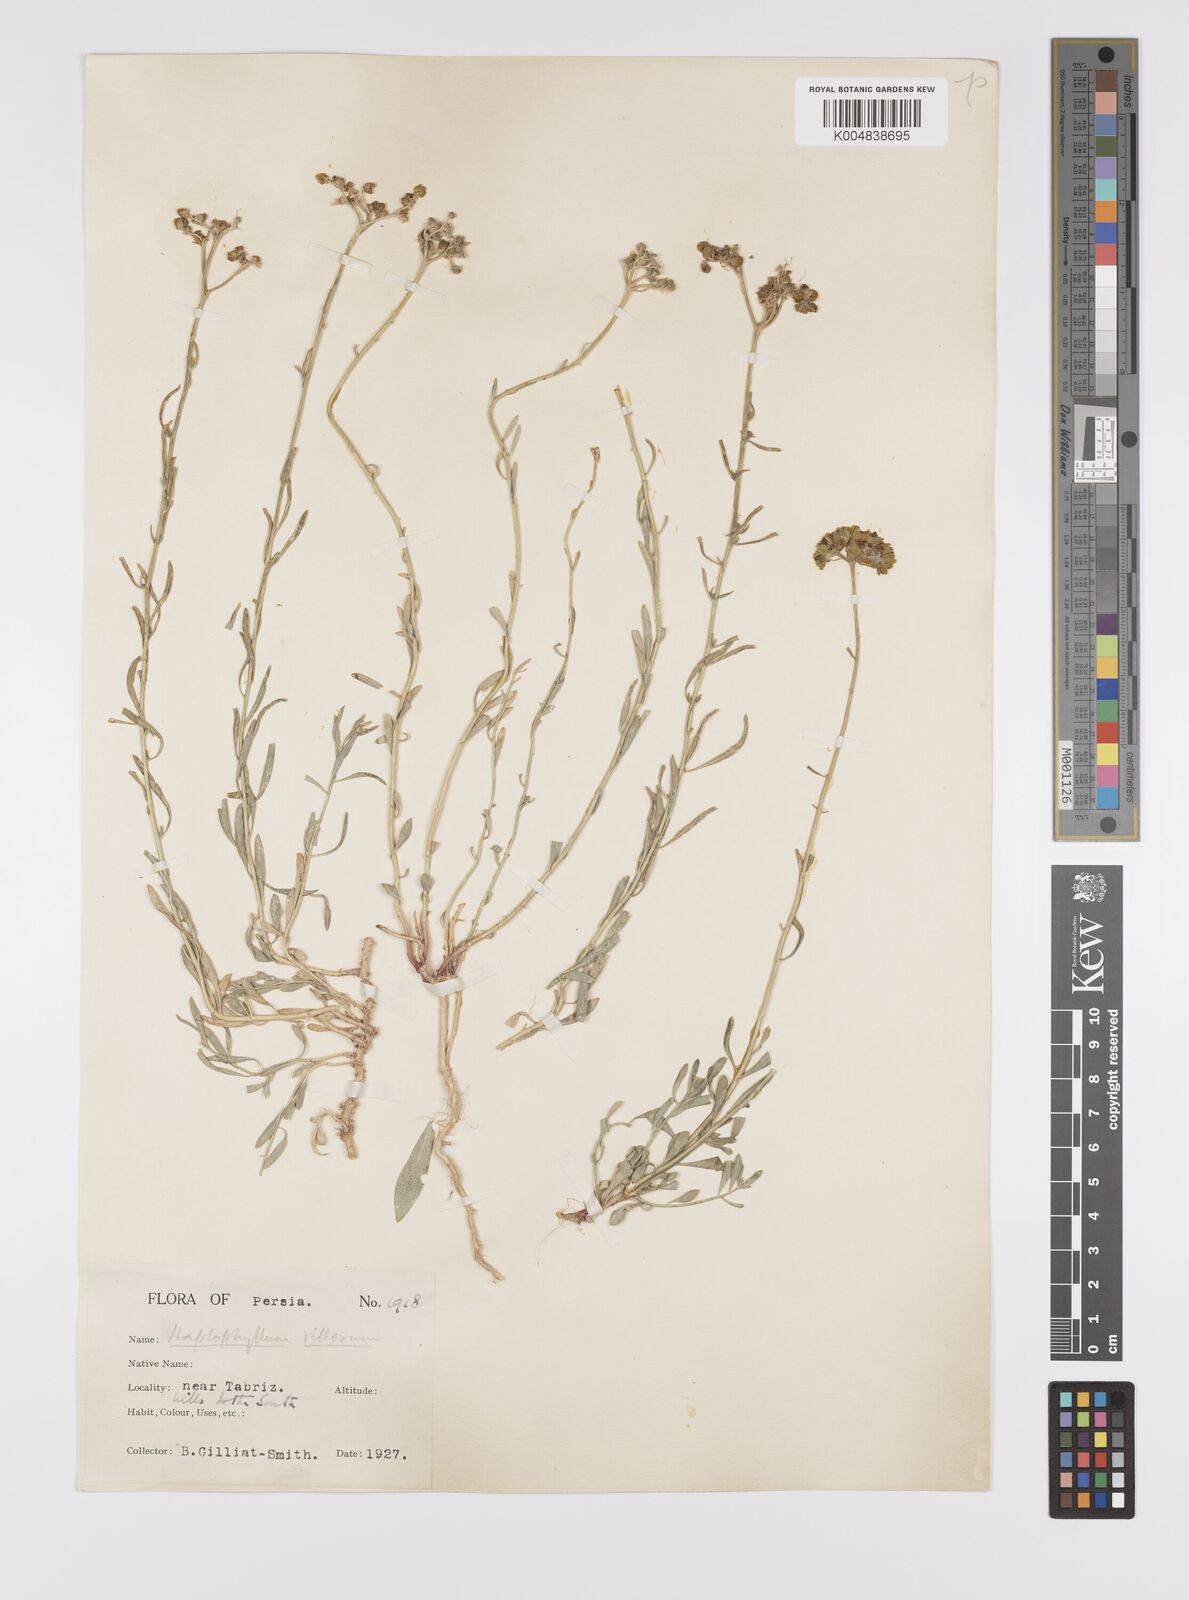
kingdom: Plantae
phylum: Tracheophyta
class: Magnoliopsida
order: Sapindales
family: Rutaceae
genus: Haplophyllum
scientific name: Haplophyllum villosum
